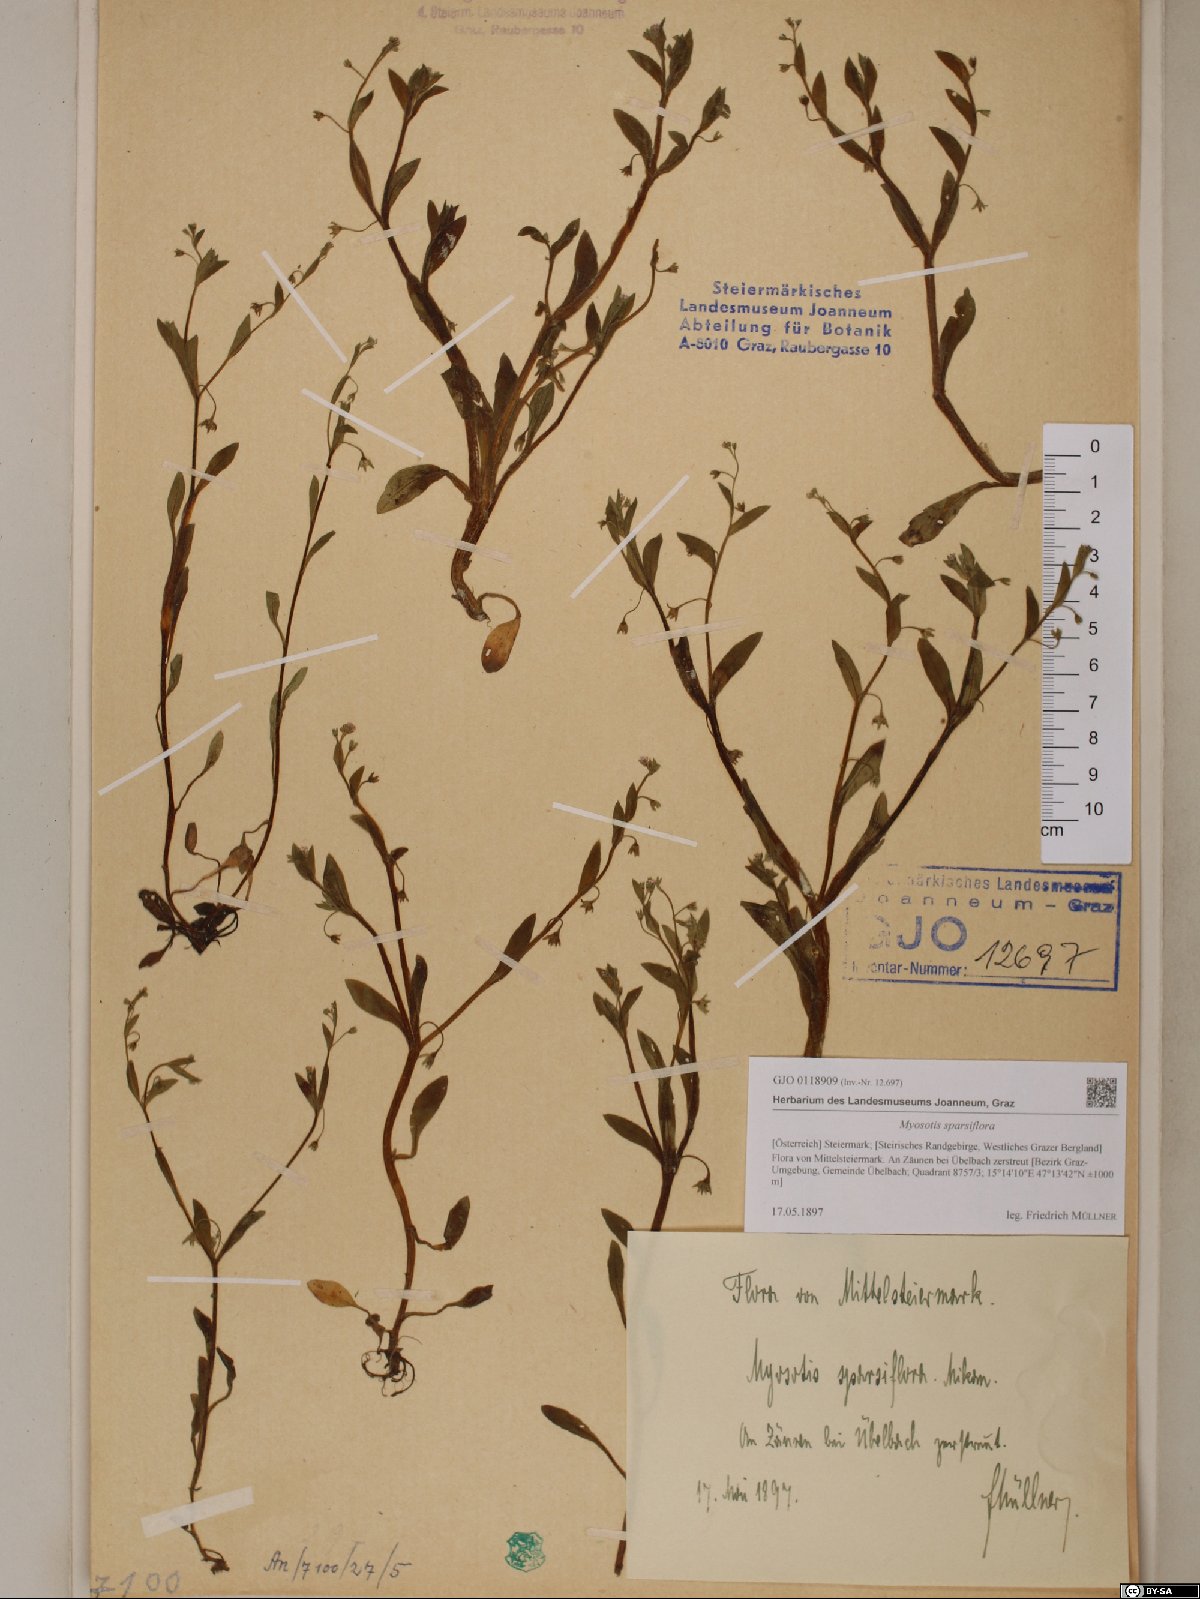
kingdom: Plantae
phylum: Tracheophyta
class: Magnoliopsida
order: Boraginales
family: Boraginaceae
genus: Myosotis
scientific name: Myosotis sparsiflora
